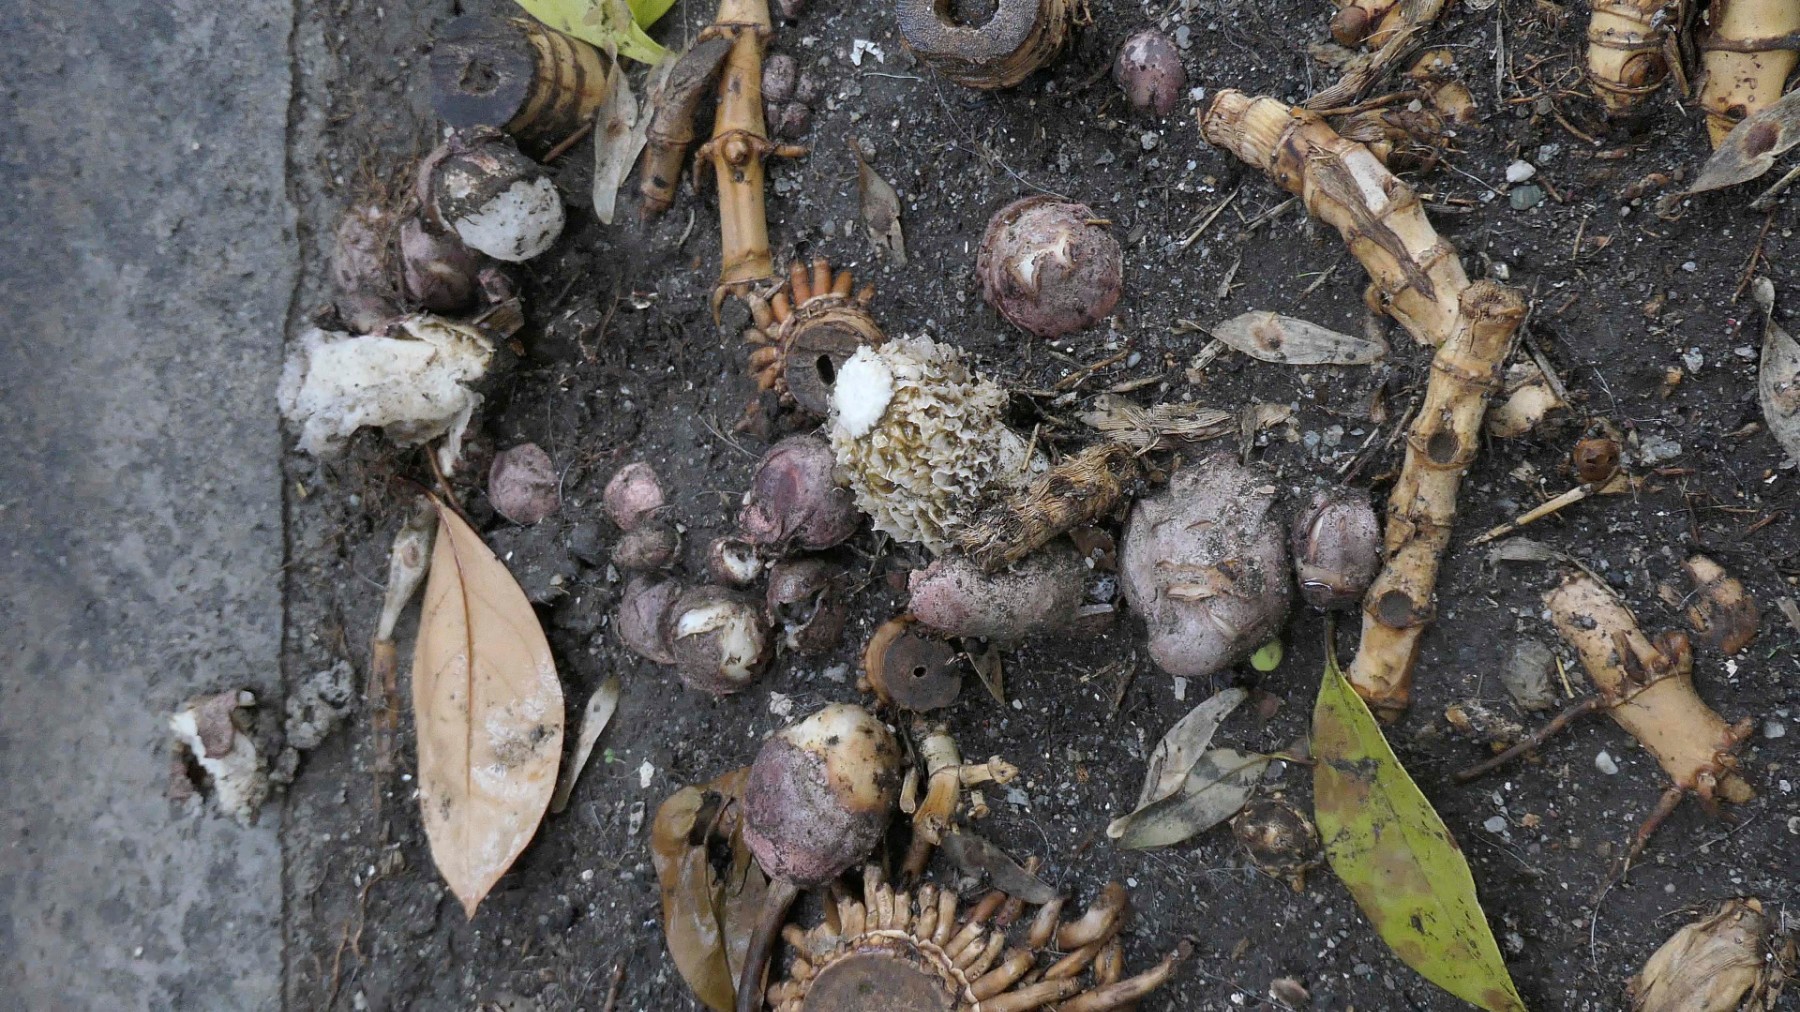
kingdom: Fungi
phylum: Basidiomycota
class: Agaricomycetes
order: Phallales
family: Phallaceae
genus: Phallus
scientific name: Phallus hadriani
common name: sand-stinksvamp
